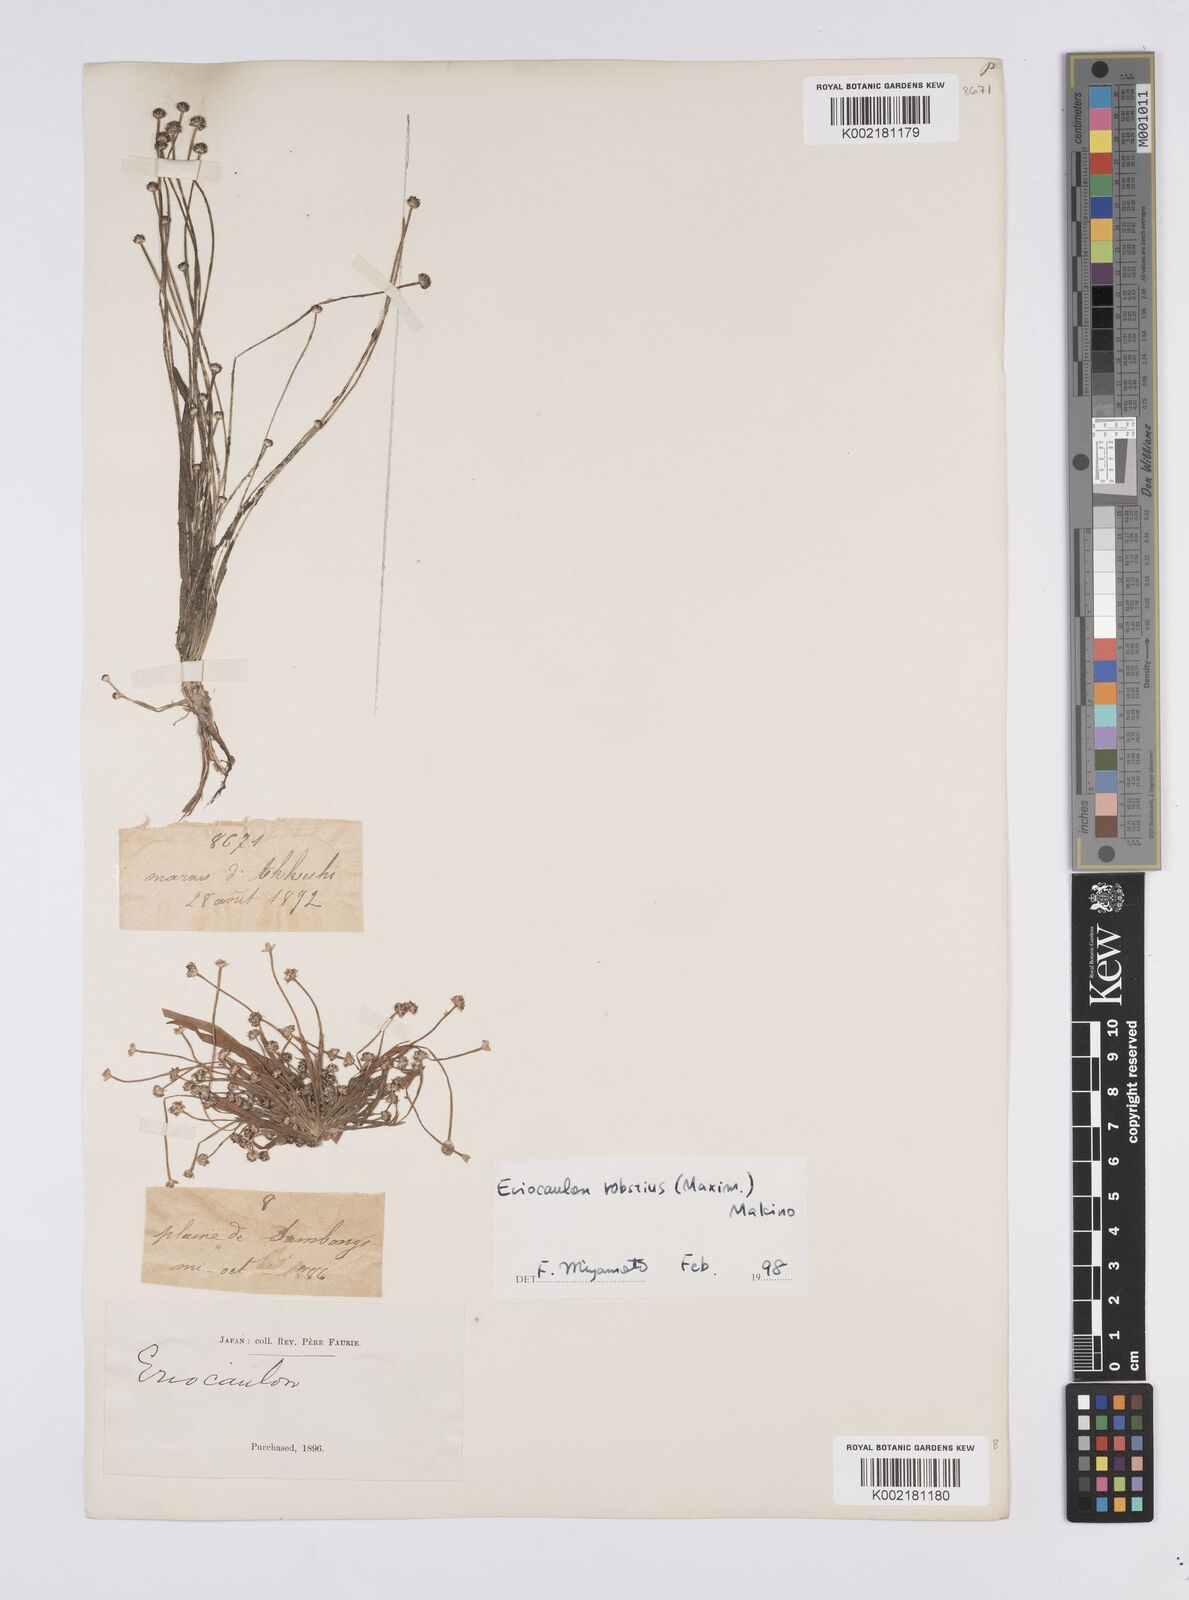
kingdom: Plantae
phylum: Tracheophyta
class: Liliopsida
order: Poales
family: Eriocaulaceae
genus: Eriocaulon
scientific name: Eriocaulon alpestre
